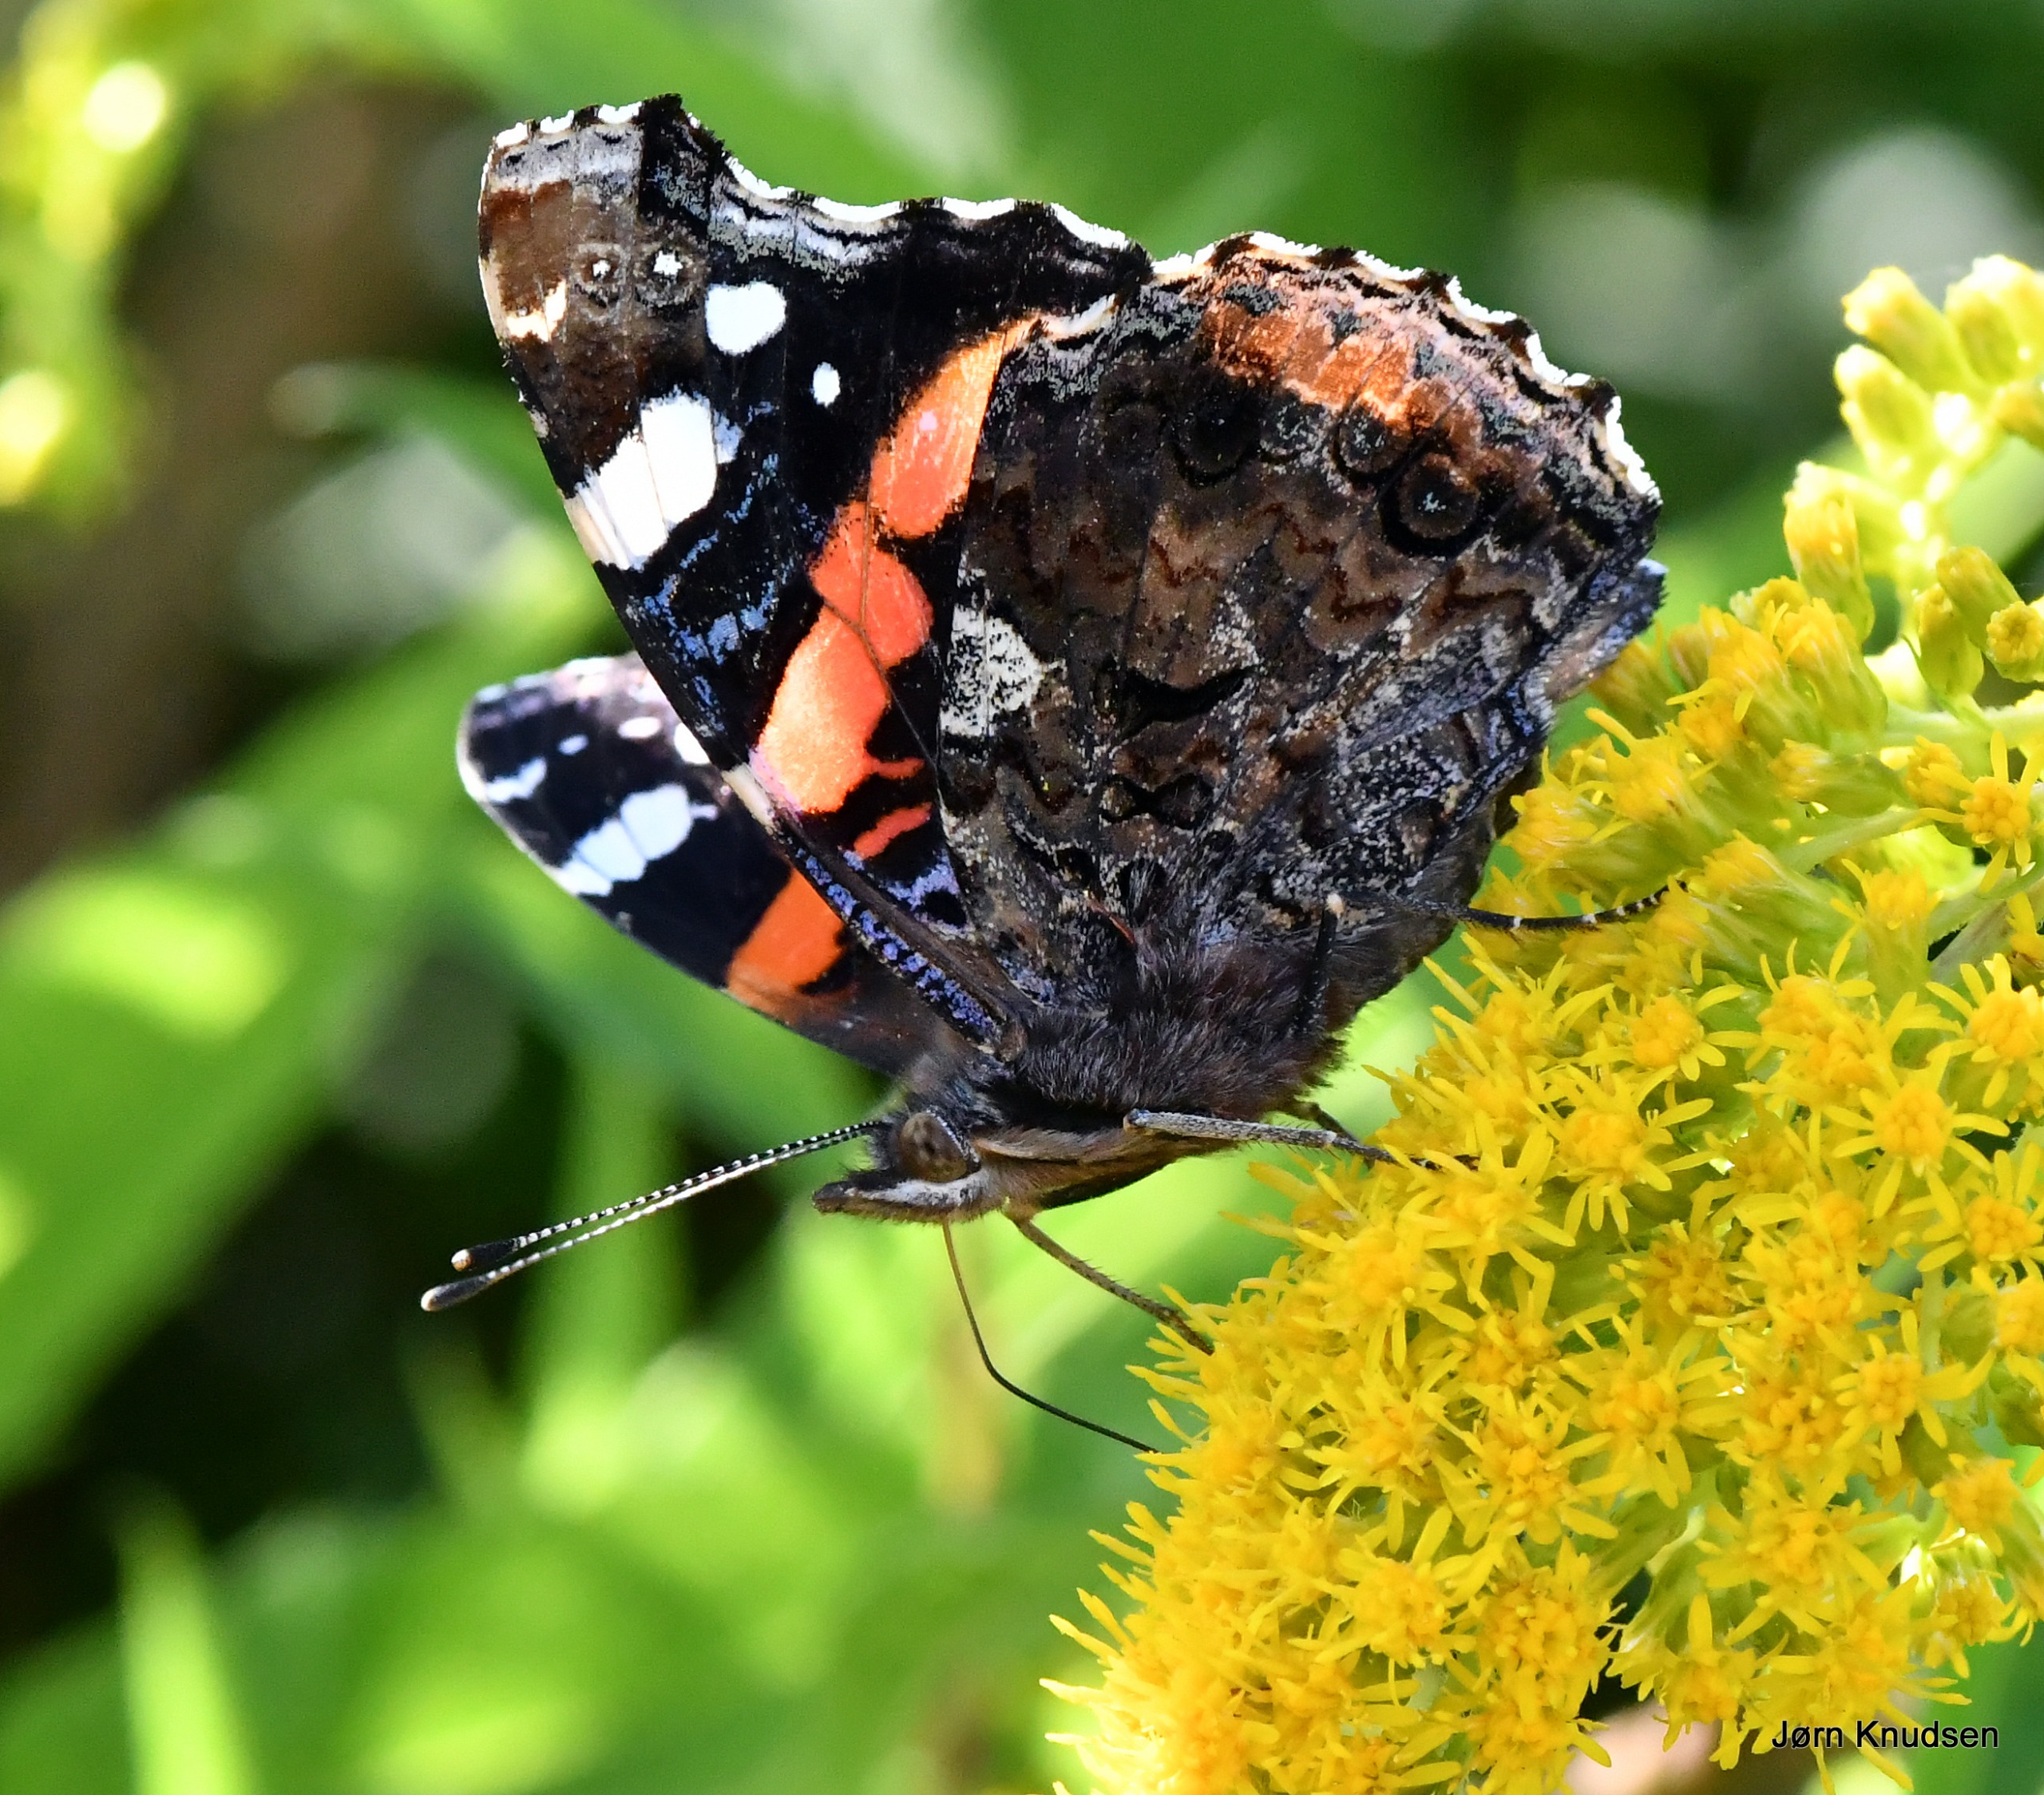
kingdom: Animalia
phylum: Arthropoda
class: Insecta
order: Lepidoptera
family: Nymphalidae
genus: Vanessa
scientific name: Vanessa atalanta
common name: Admiral
